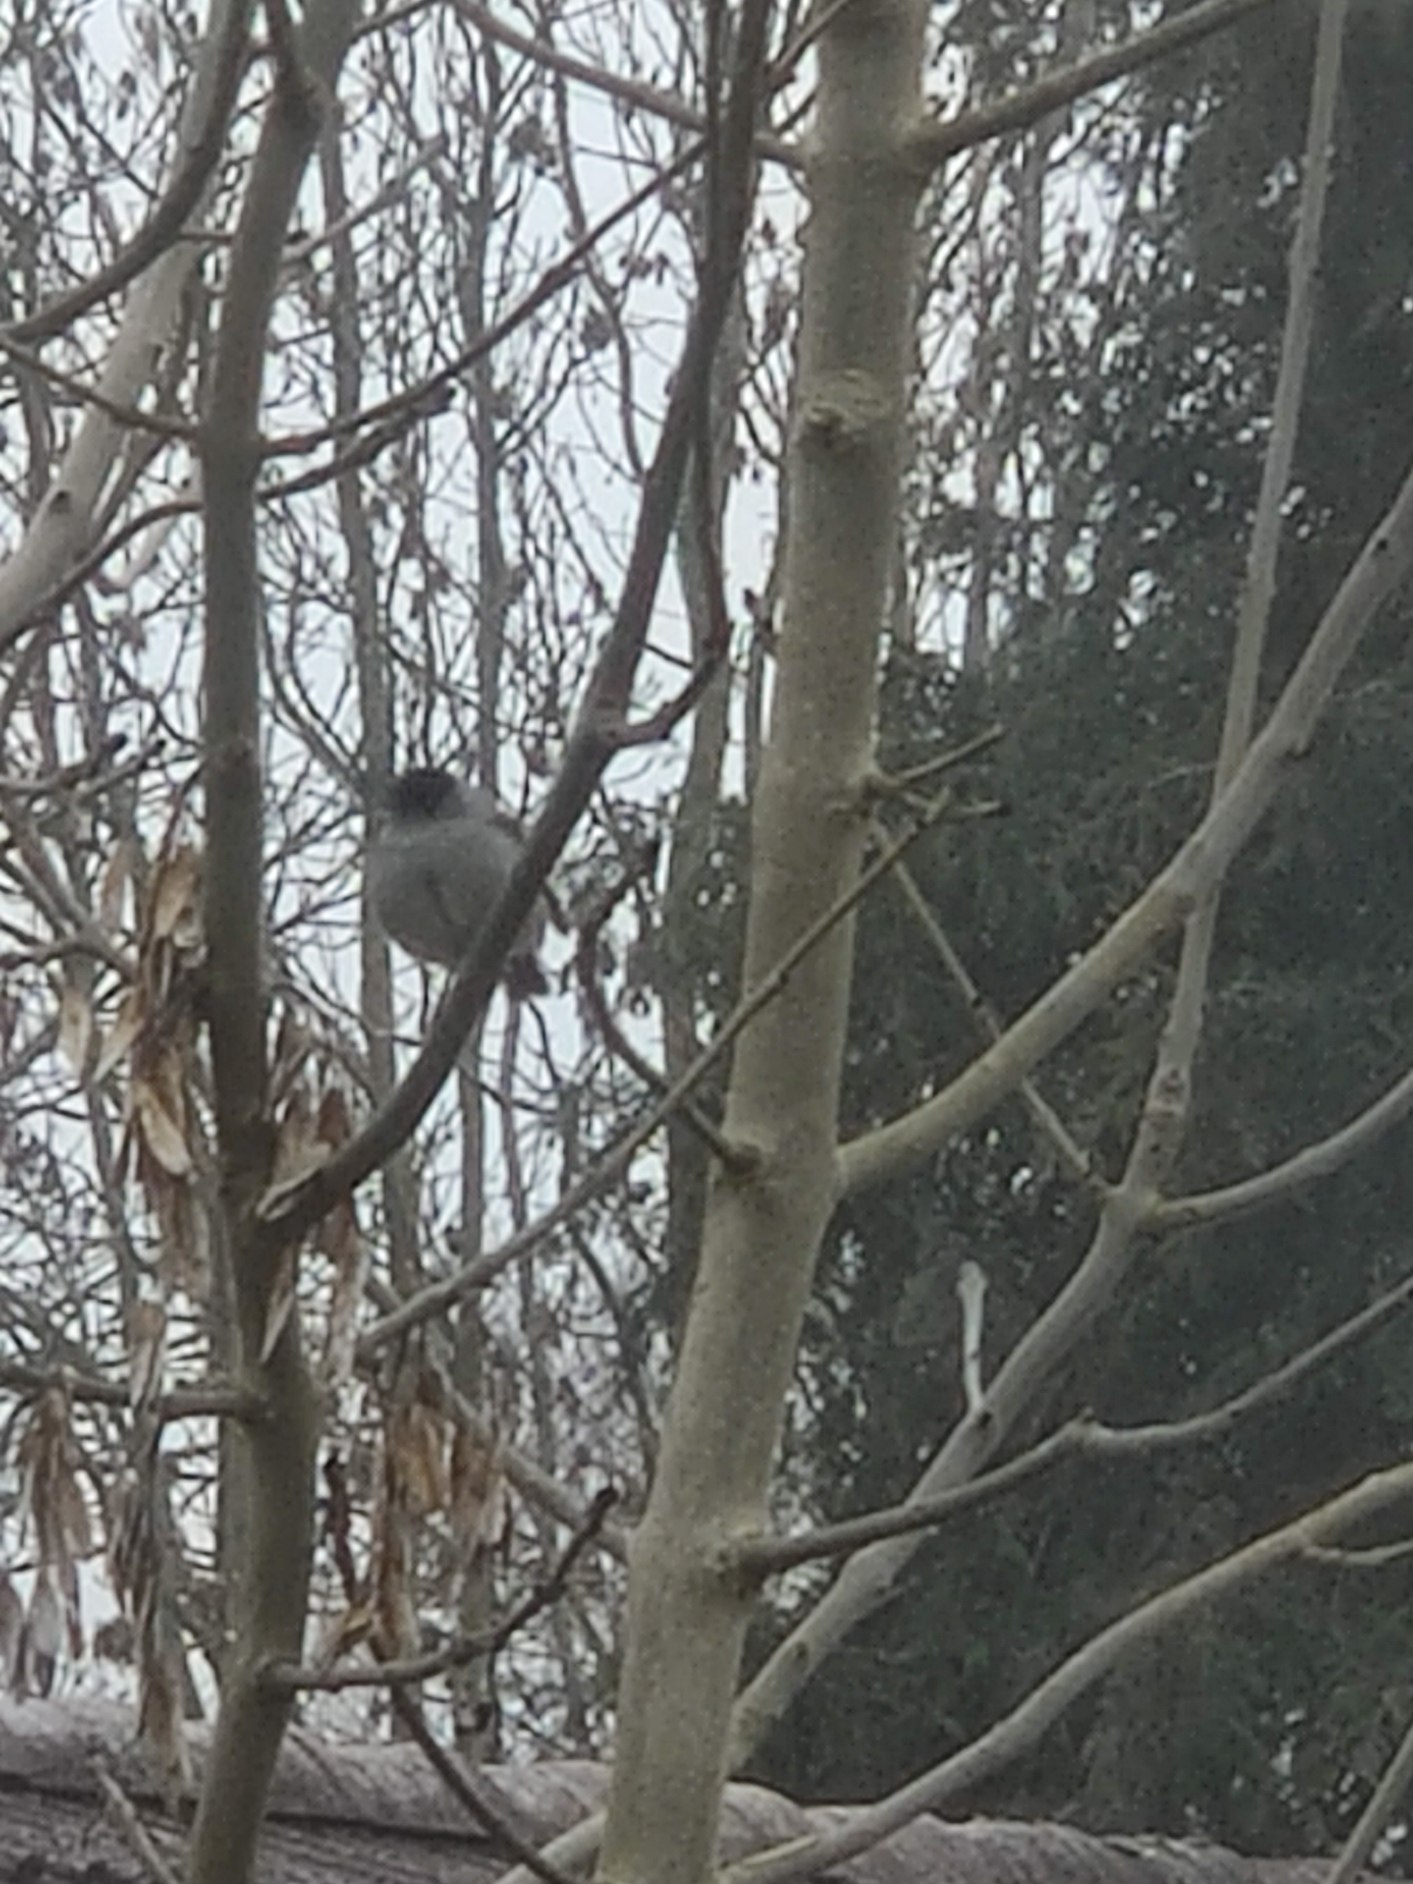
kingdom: Animalia
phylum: Chordata
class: Aves
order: Passeriformes
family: Sylviidae
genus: Sylvia
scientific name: Sylvia atricapilla
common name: Munk
